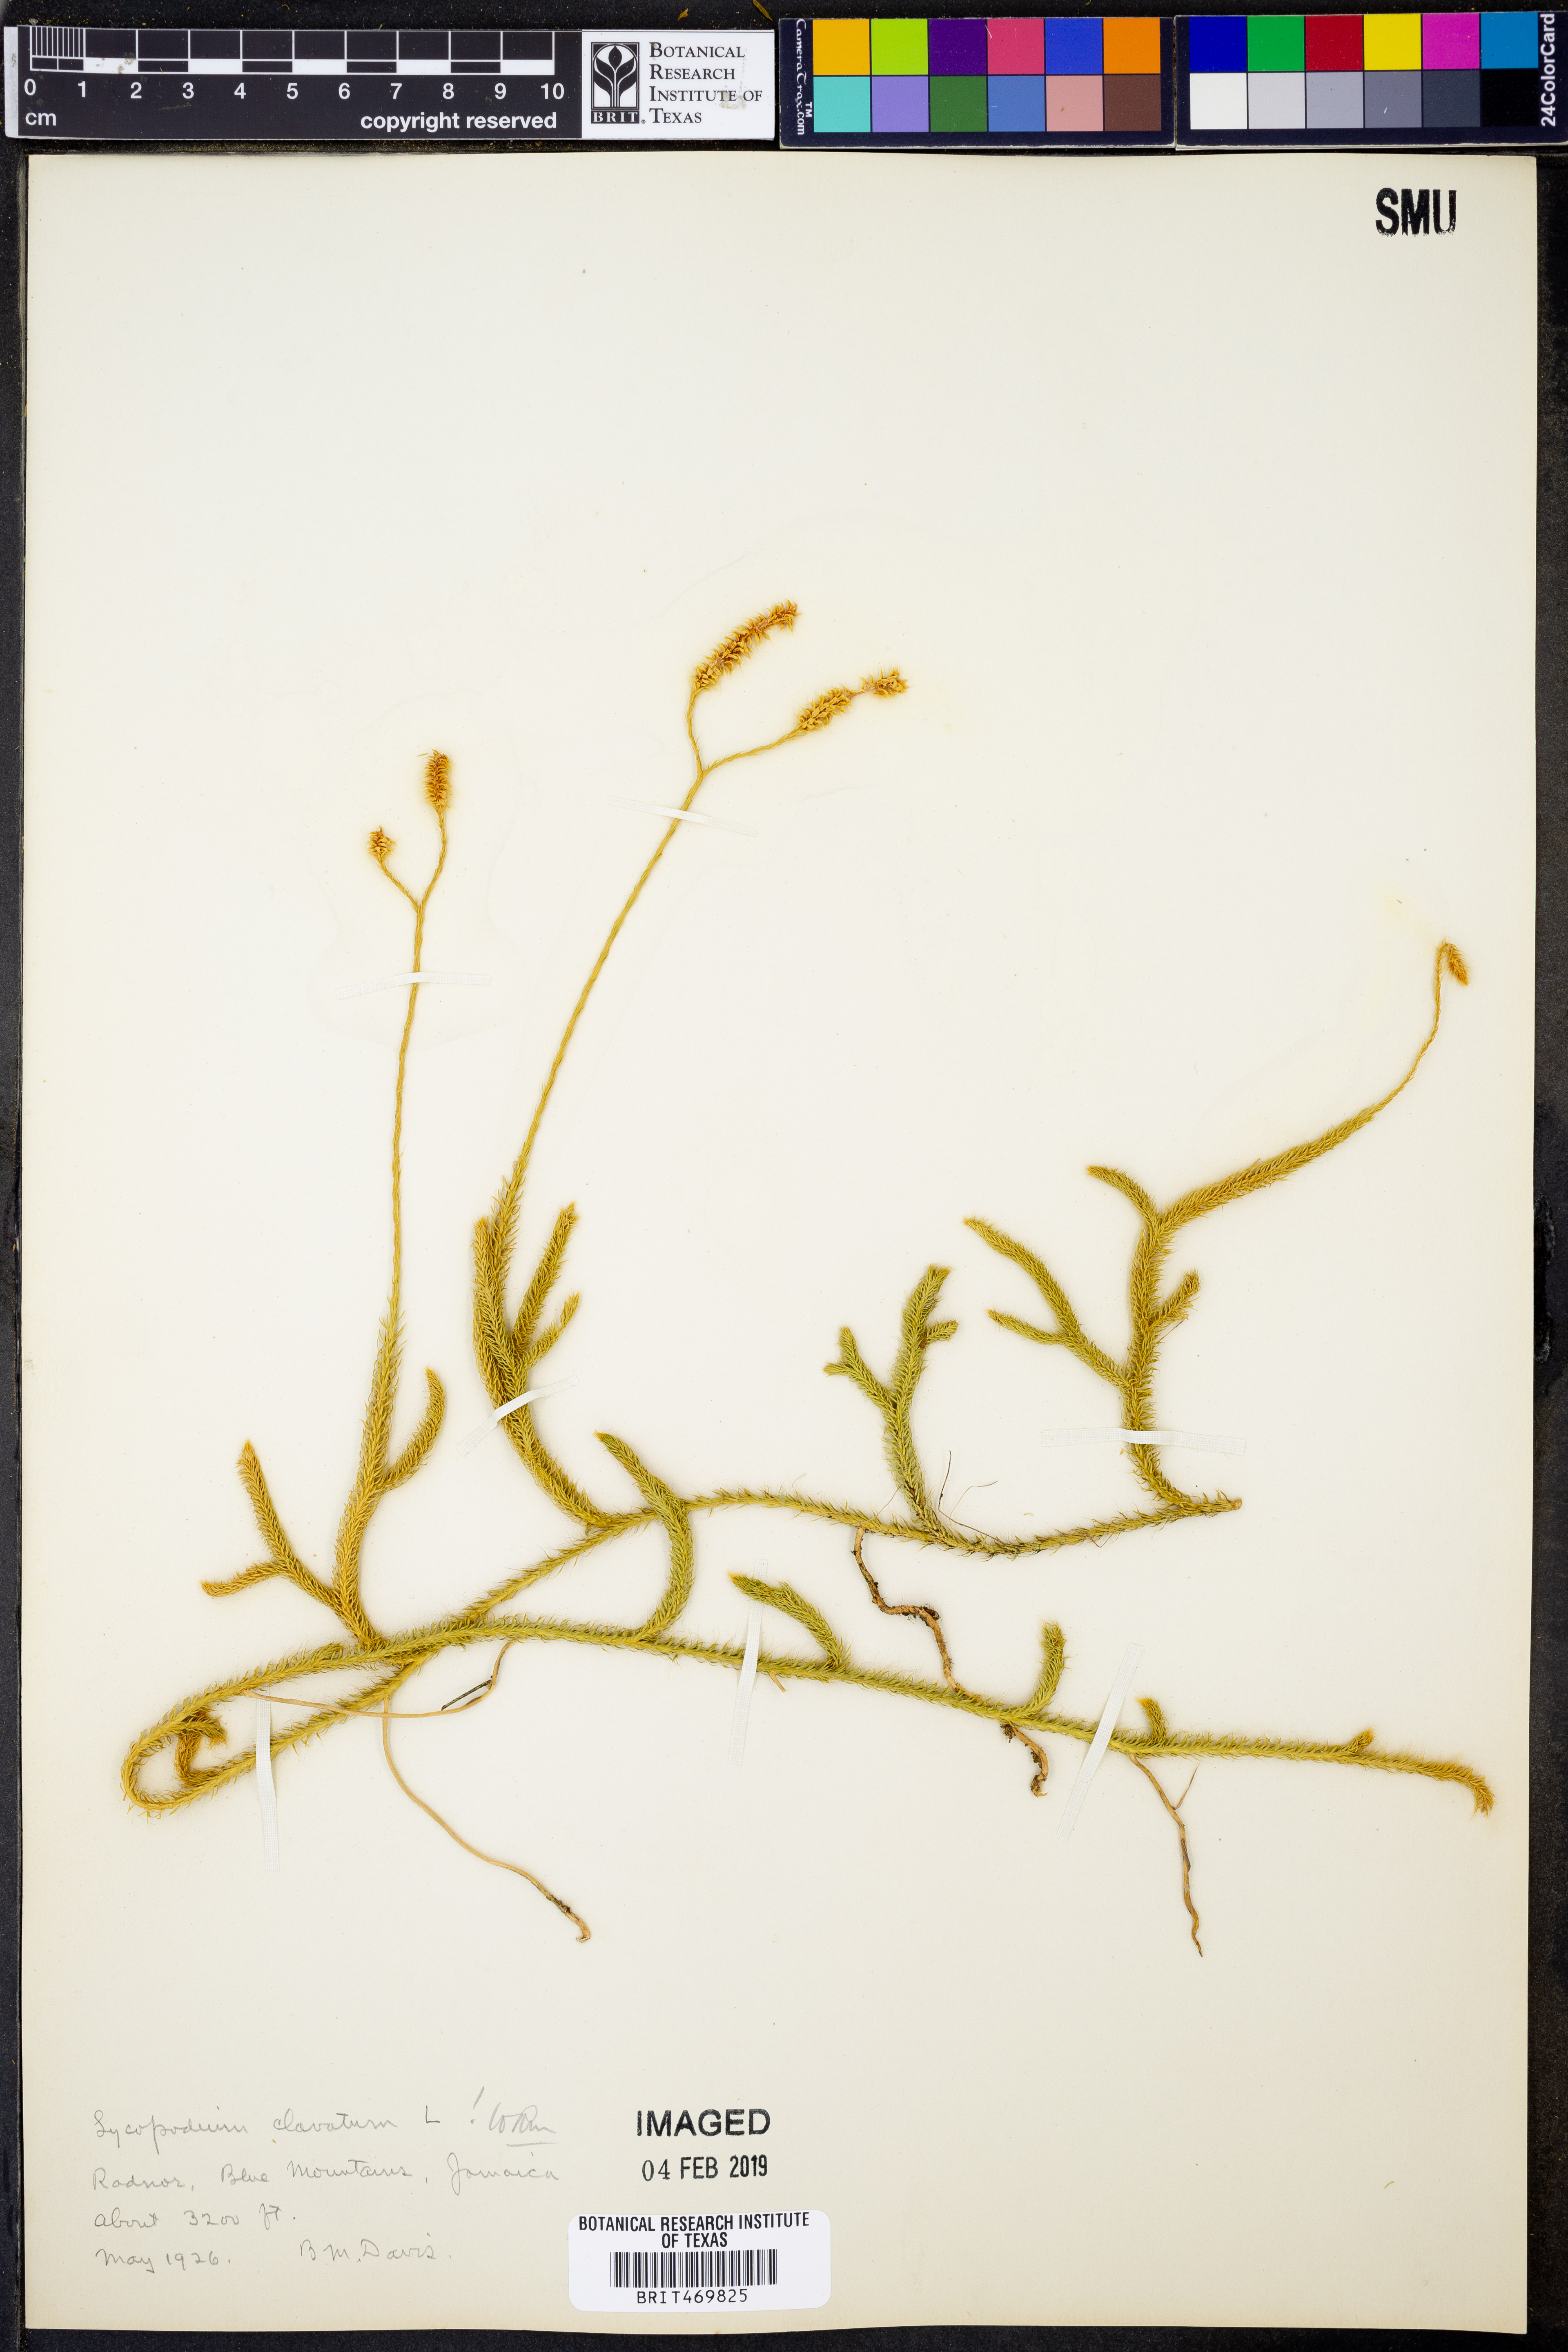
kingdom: Plantae
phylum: Tracheophyta
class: Lycopodiopsida
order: Lycopodiales
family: Lycopodiaceae
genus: Lycopodium
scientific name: Lycopodium clavatum
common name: Stag's-horn clubmoss
